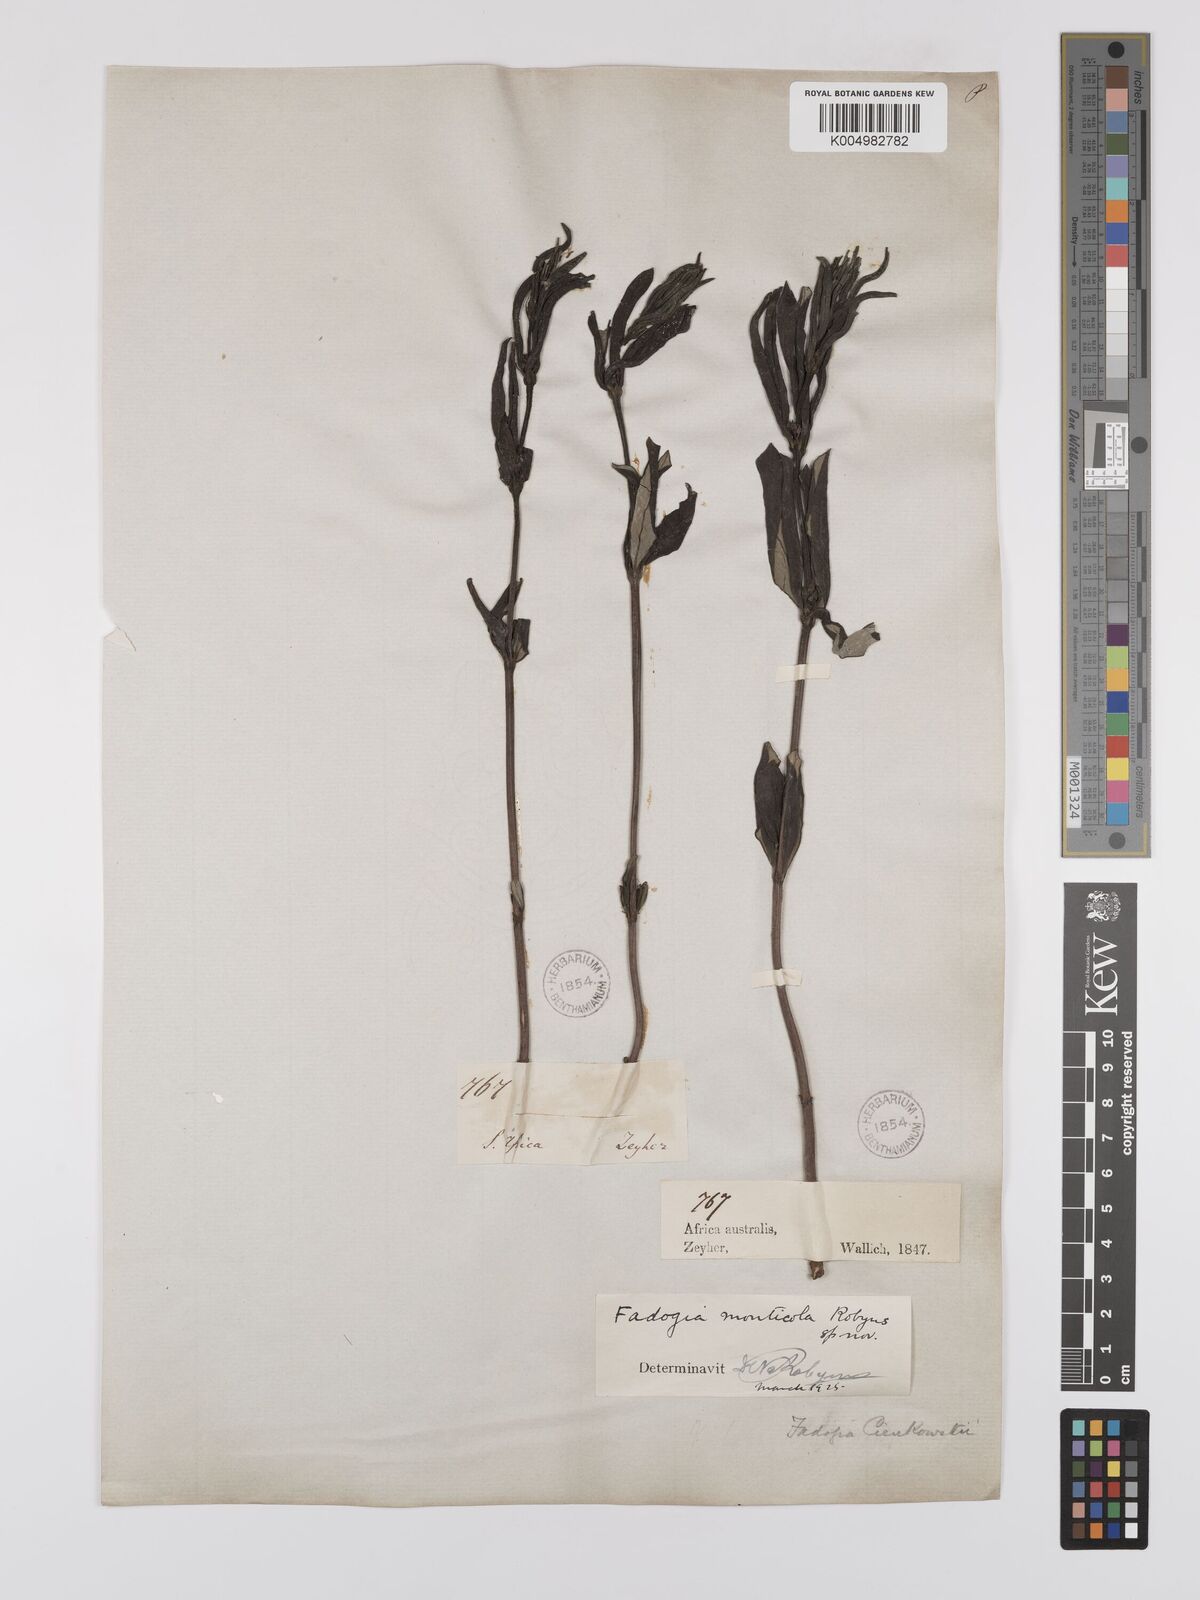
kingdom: Plantae
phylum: Tracheophyta
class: Magnoliopsida
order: Gentianales
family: Rubiaceae
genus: Fadogia
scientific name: Fadogia homblei
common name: Wild date
